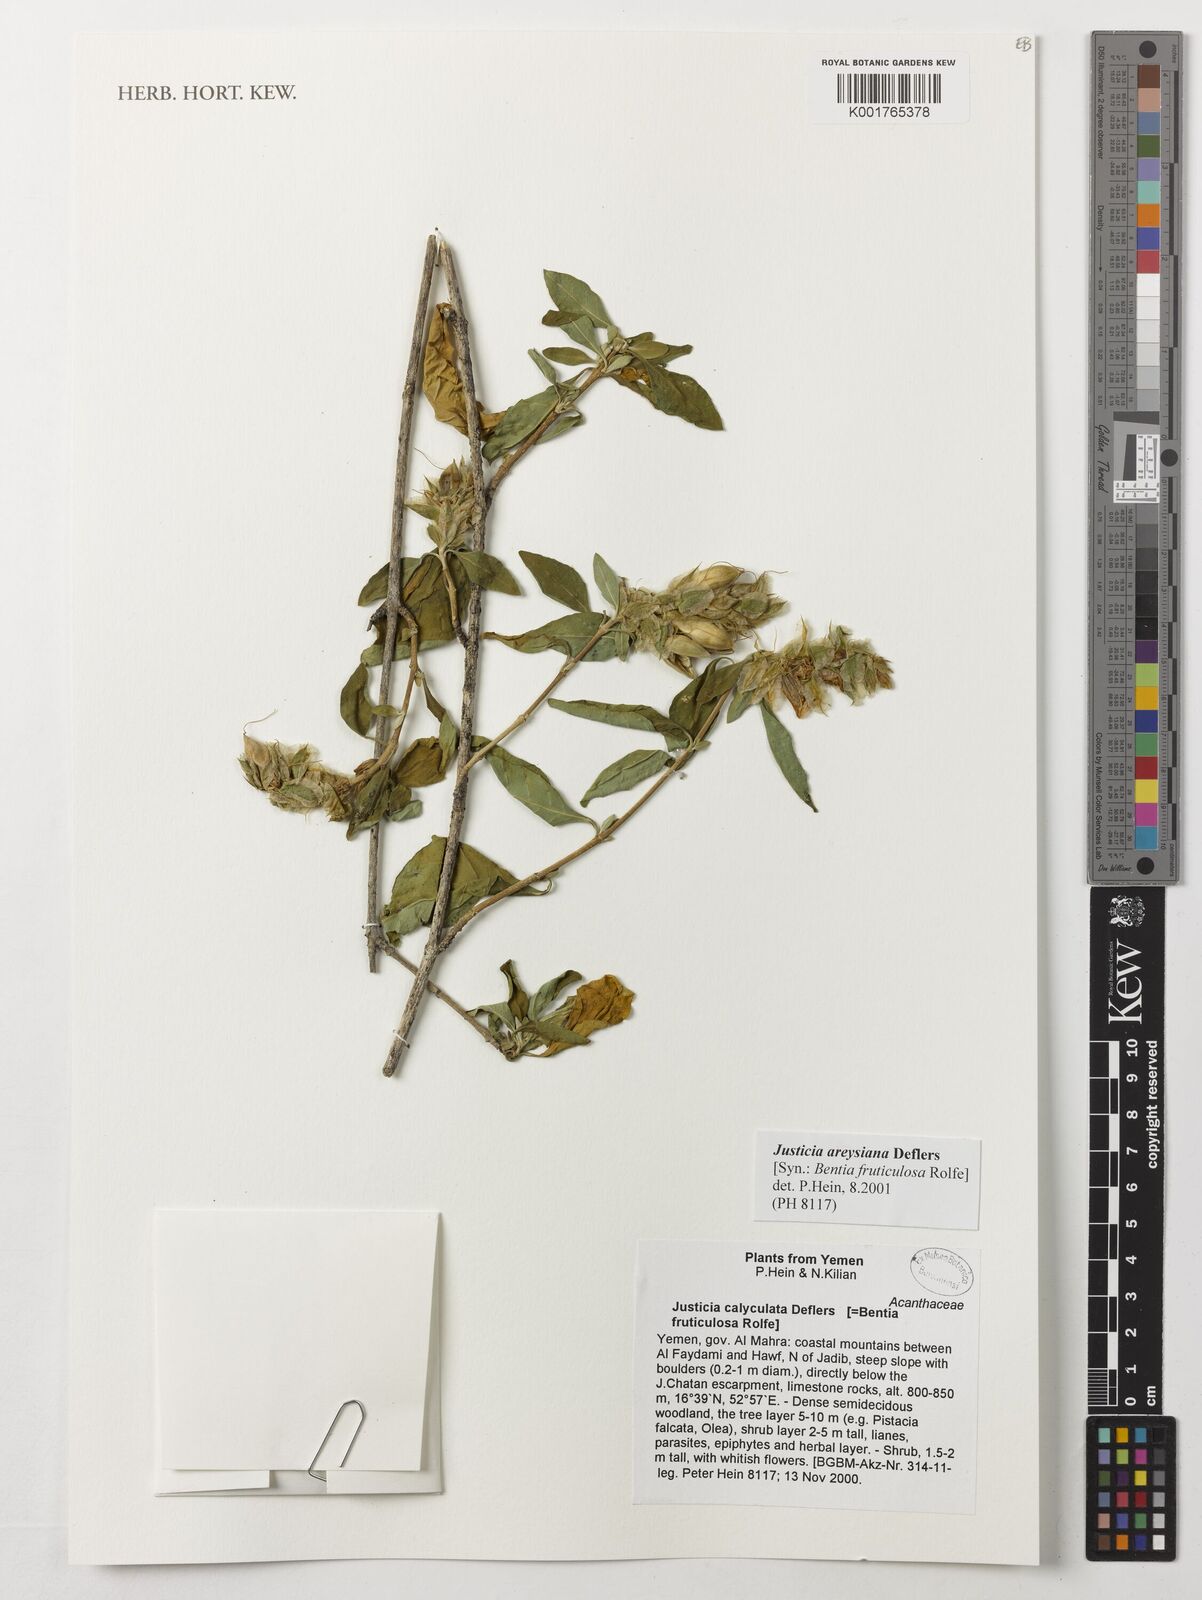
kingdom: Plantae
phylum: Tracheophyta
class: Magnoliopsida
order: Lamiales
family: Acanthaceae
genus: Justicia
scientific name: Justicia calyculata
